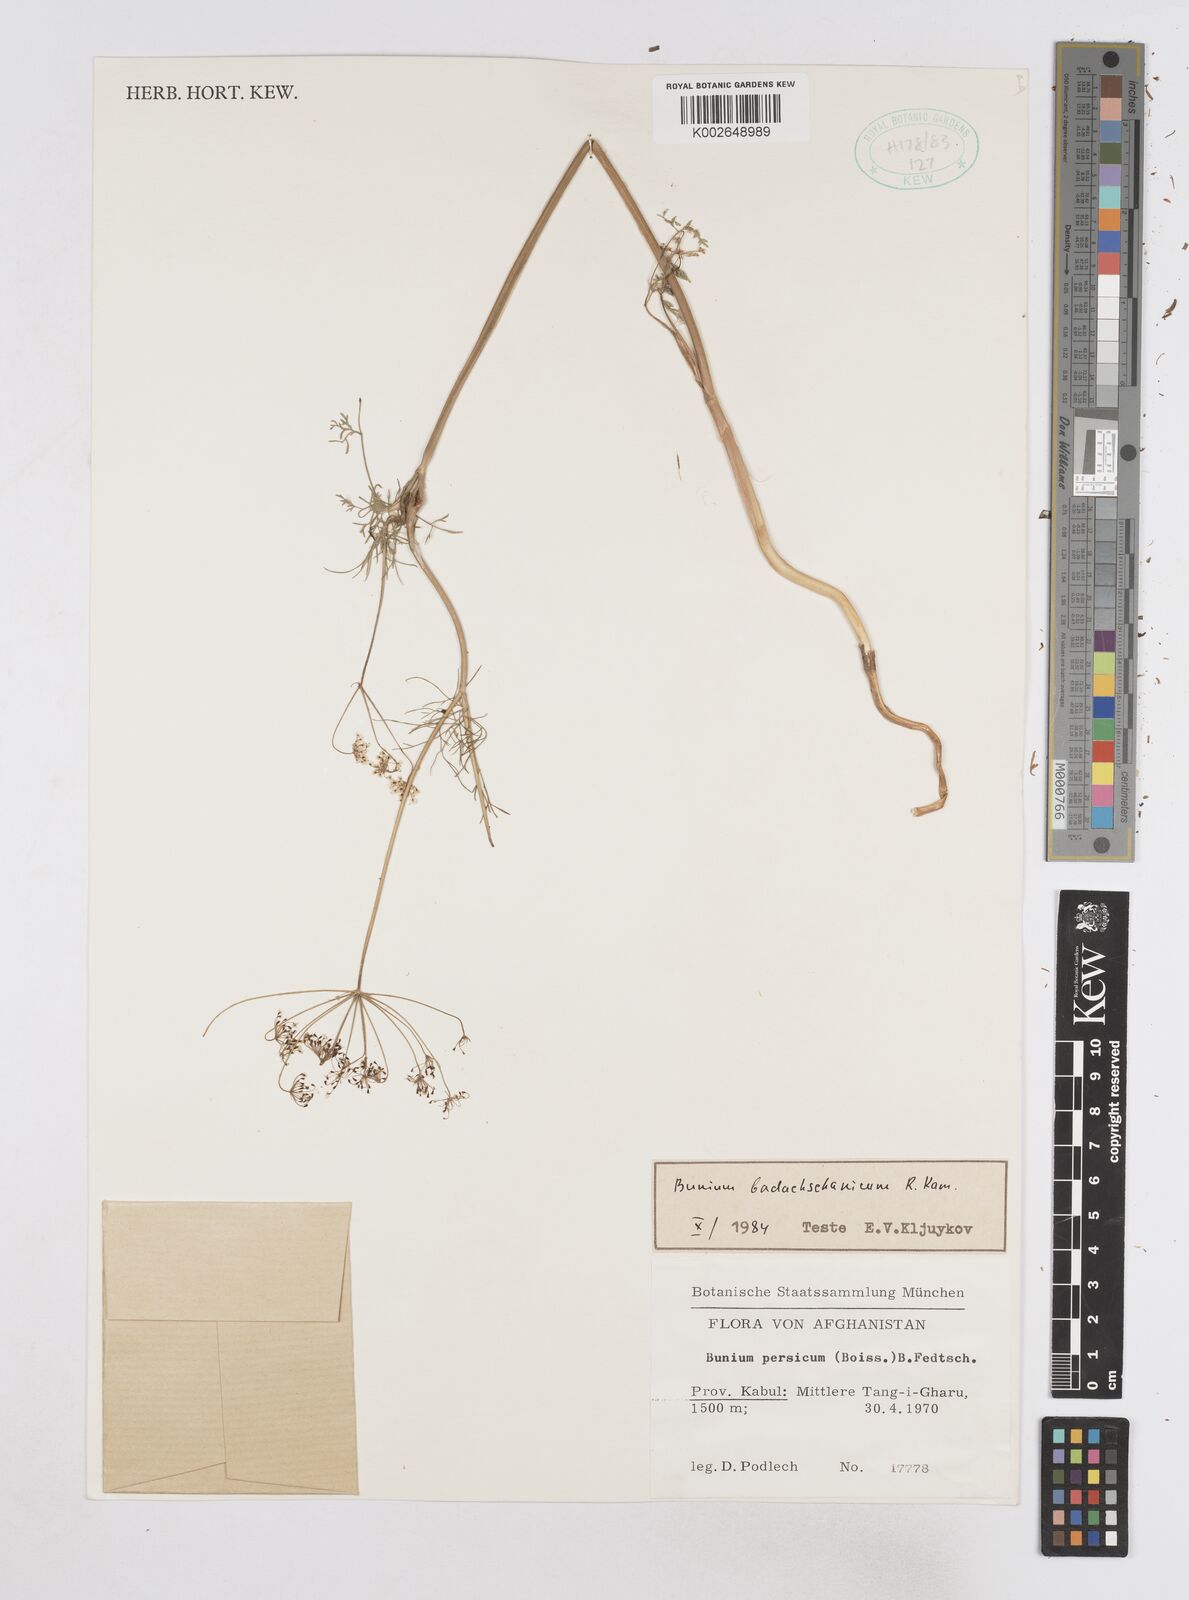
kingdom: Plantae
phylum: Tracheophyta
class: Magnoliopsida
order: Apiales
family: Apiaceae
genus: Elwendia
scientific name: Elwendia badachschanica
